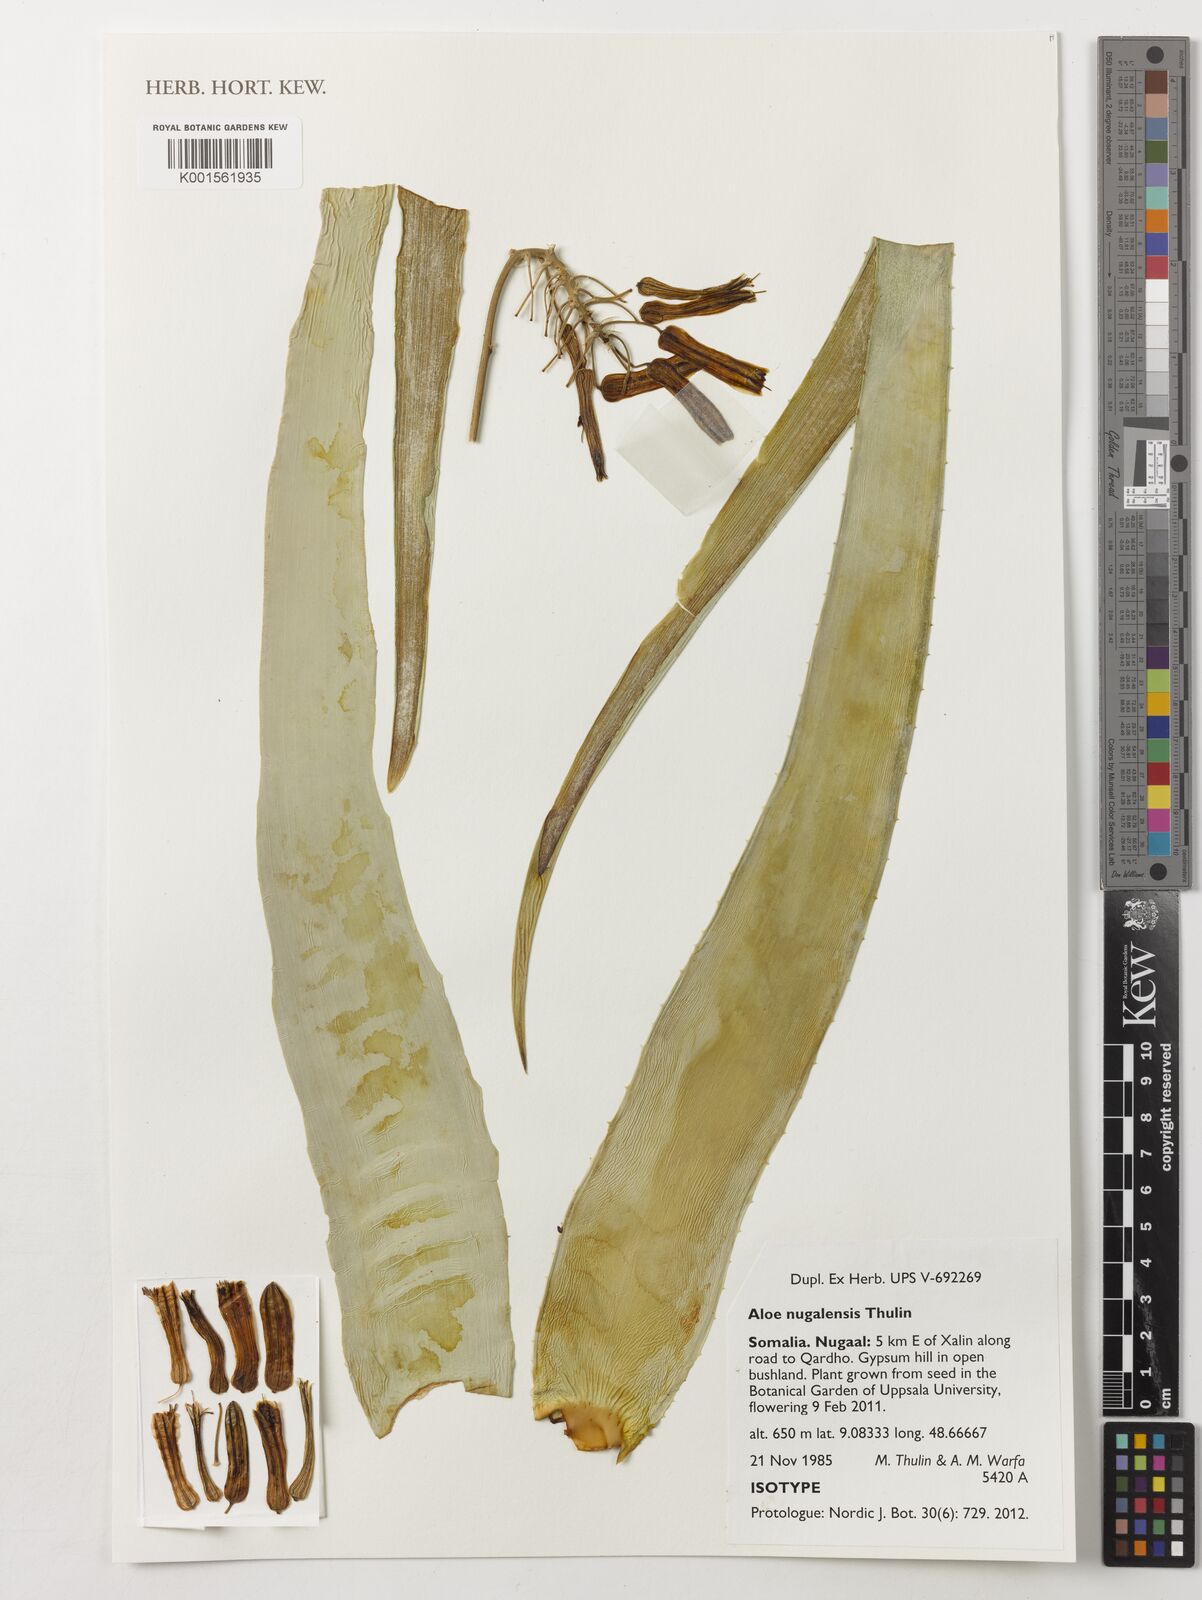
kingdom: Plantae
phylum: Tracheophyta
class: Liliopsida
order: Asparagales
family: Asphodelaceae
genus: Aloe
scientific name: Aloe nugalensis
